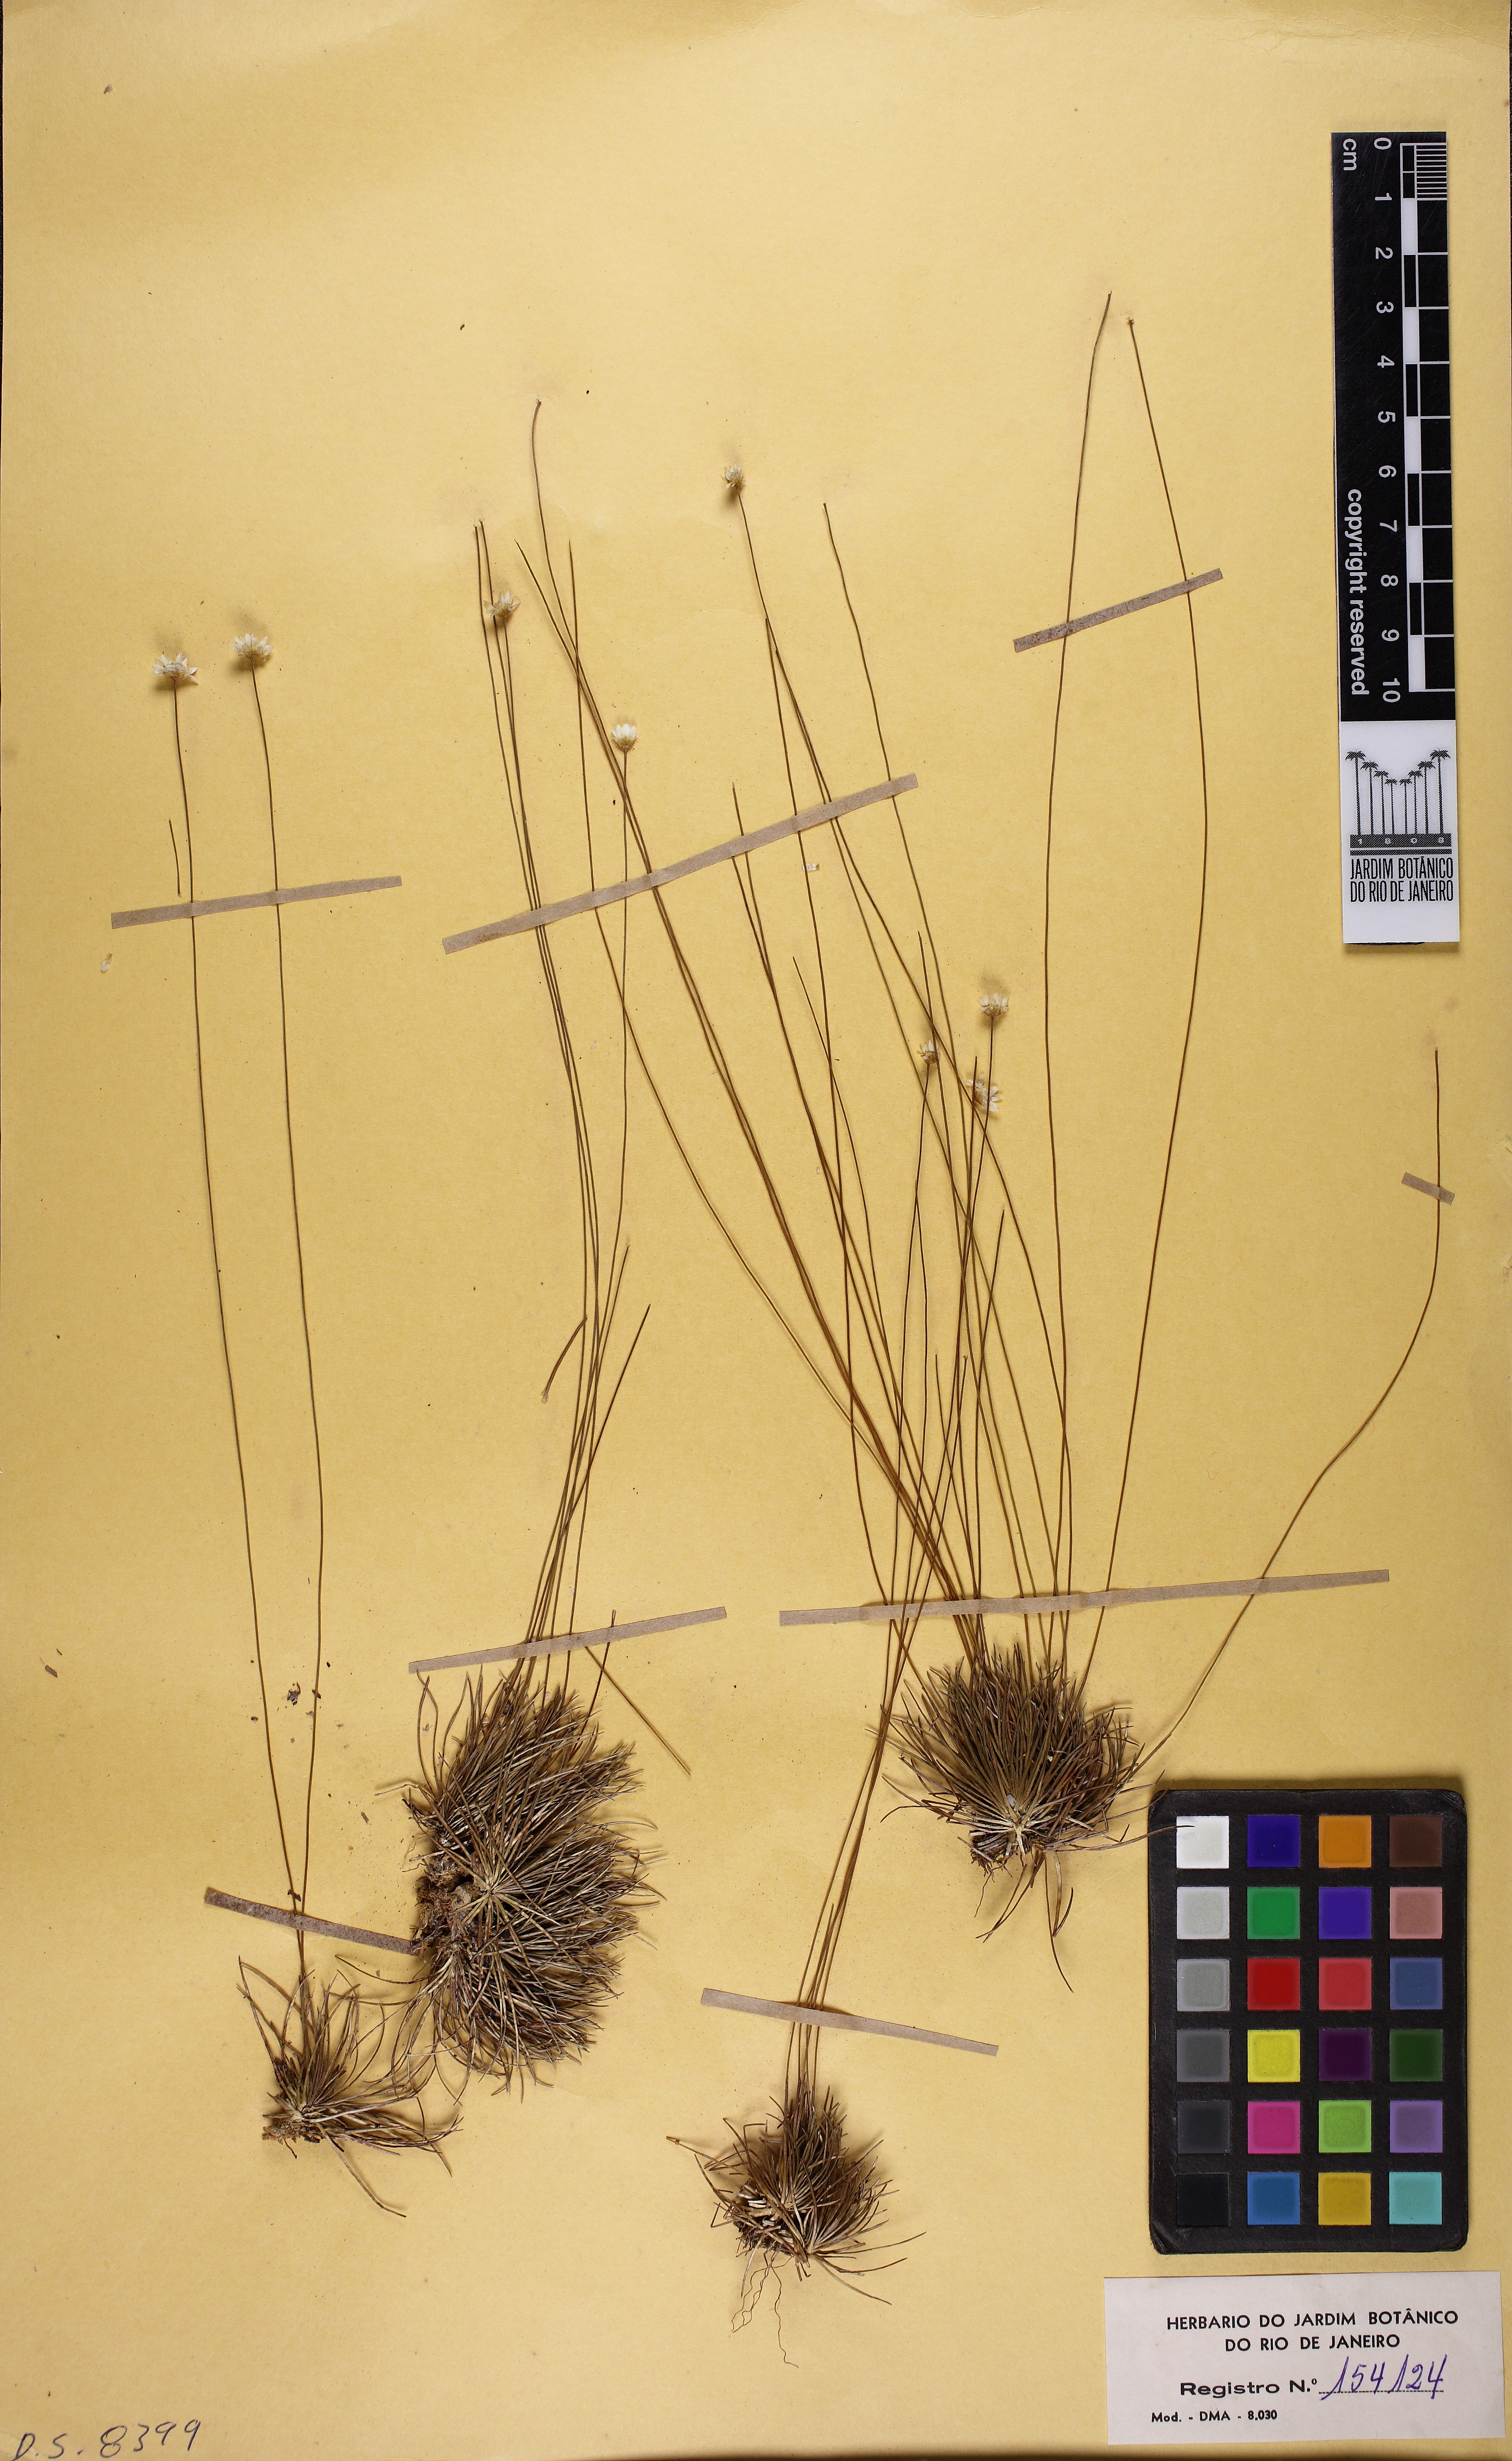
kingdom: Plantae
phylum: Tracheophyta
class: Liliopsida
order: Poales
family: Eriocaulaceae
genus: Comanthera
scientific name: Comanthera nivea
